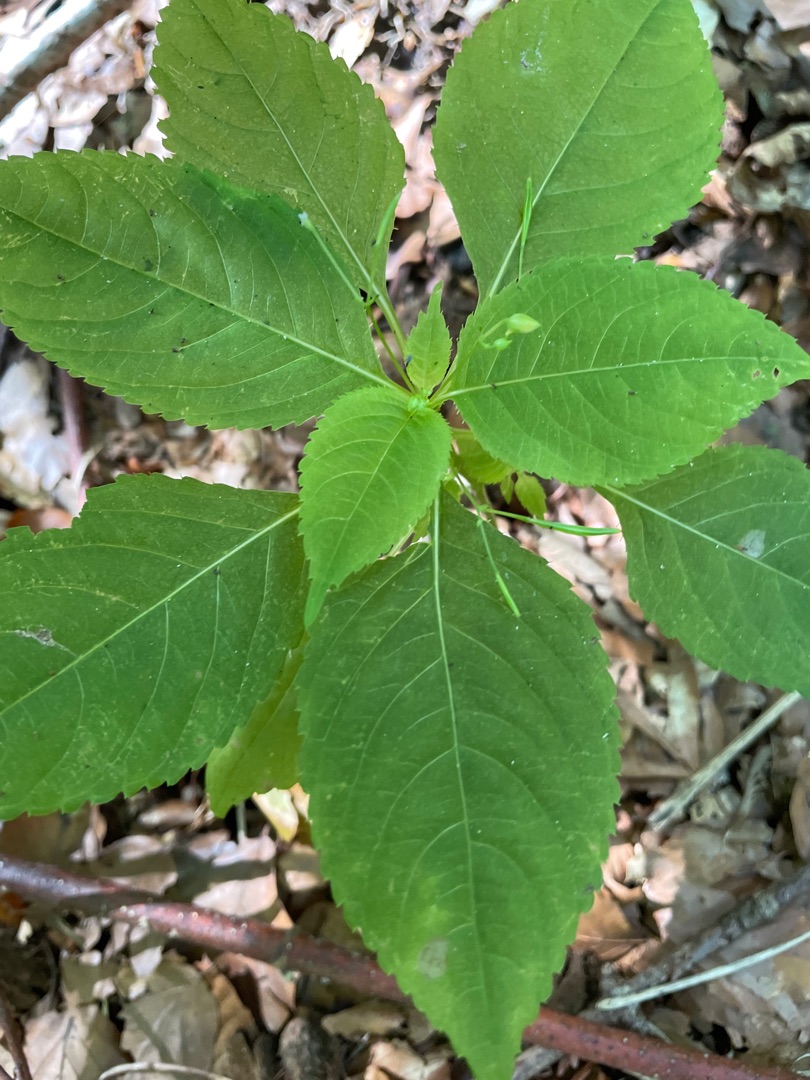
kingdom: Plantae
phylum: Tracheophyta
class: Magnoliopsida
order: Ericales
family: Balsaminaceae
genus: Impatiens
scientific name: Impatiens parviflora
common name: Småblomstret balsamin
